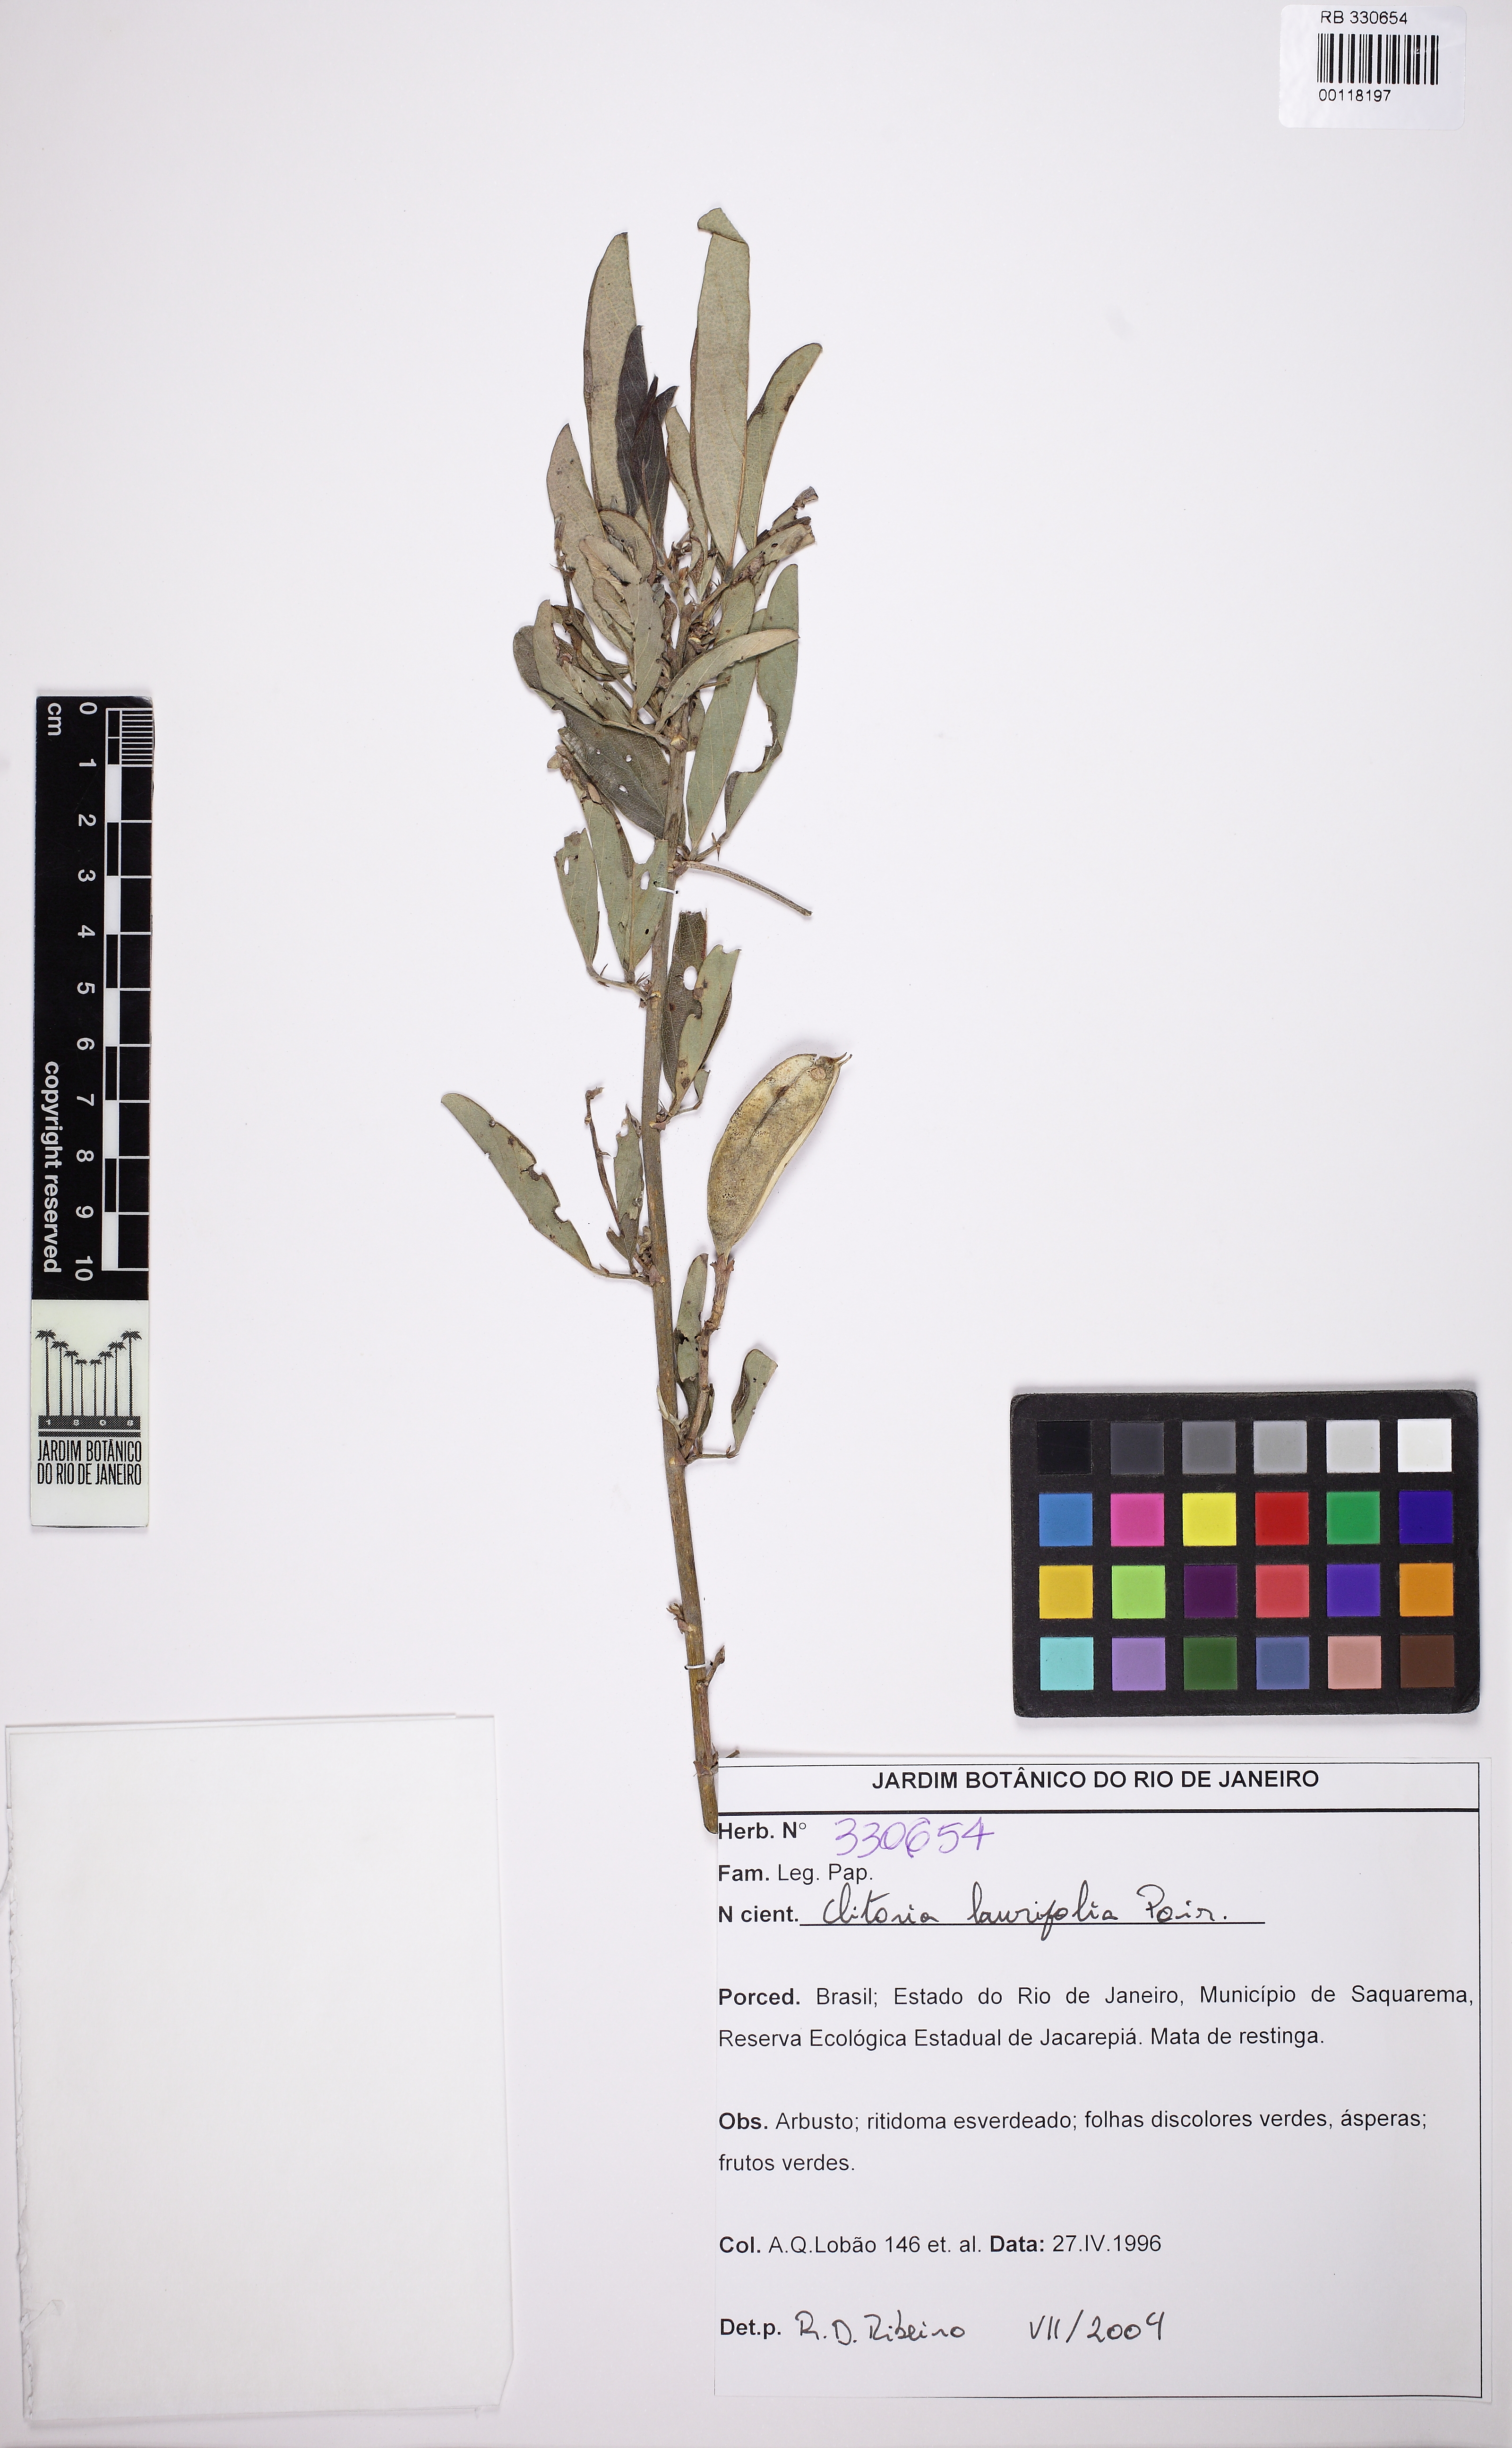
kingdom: Plantae
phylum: Tracheophyta
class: Magnoliopsida
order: Fabales
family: Fabaceae
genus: Clitoria
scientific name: Clitoria laurifolia
